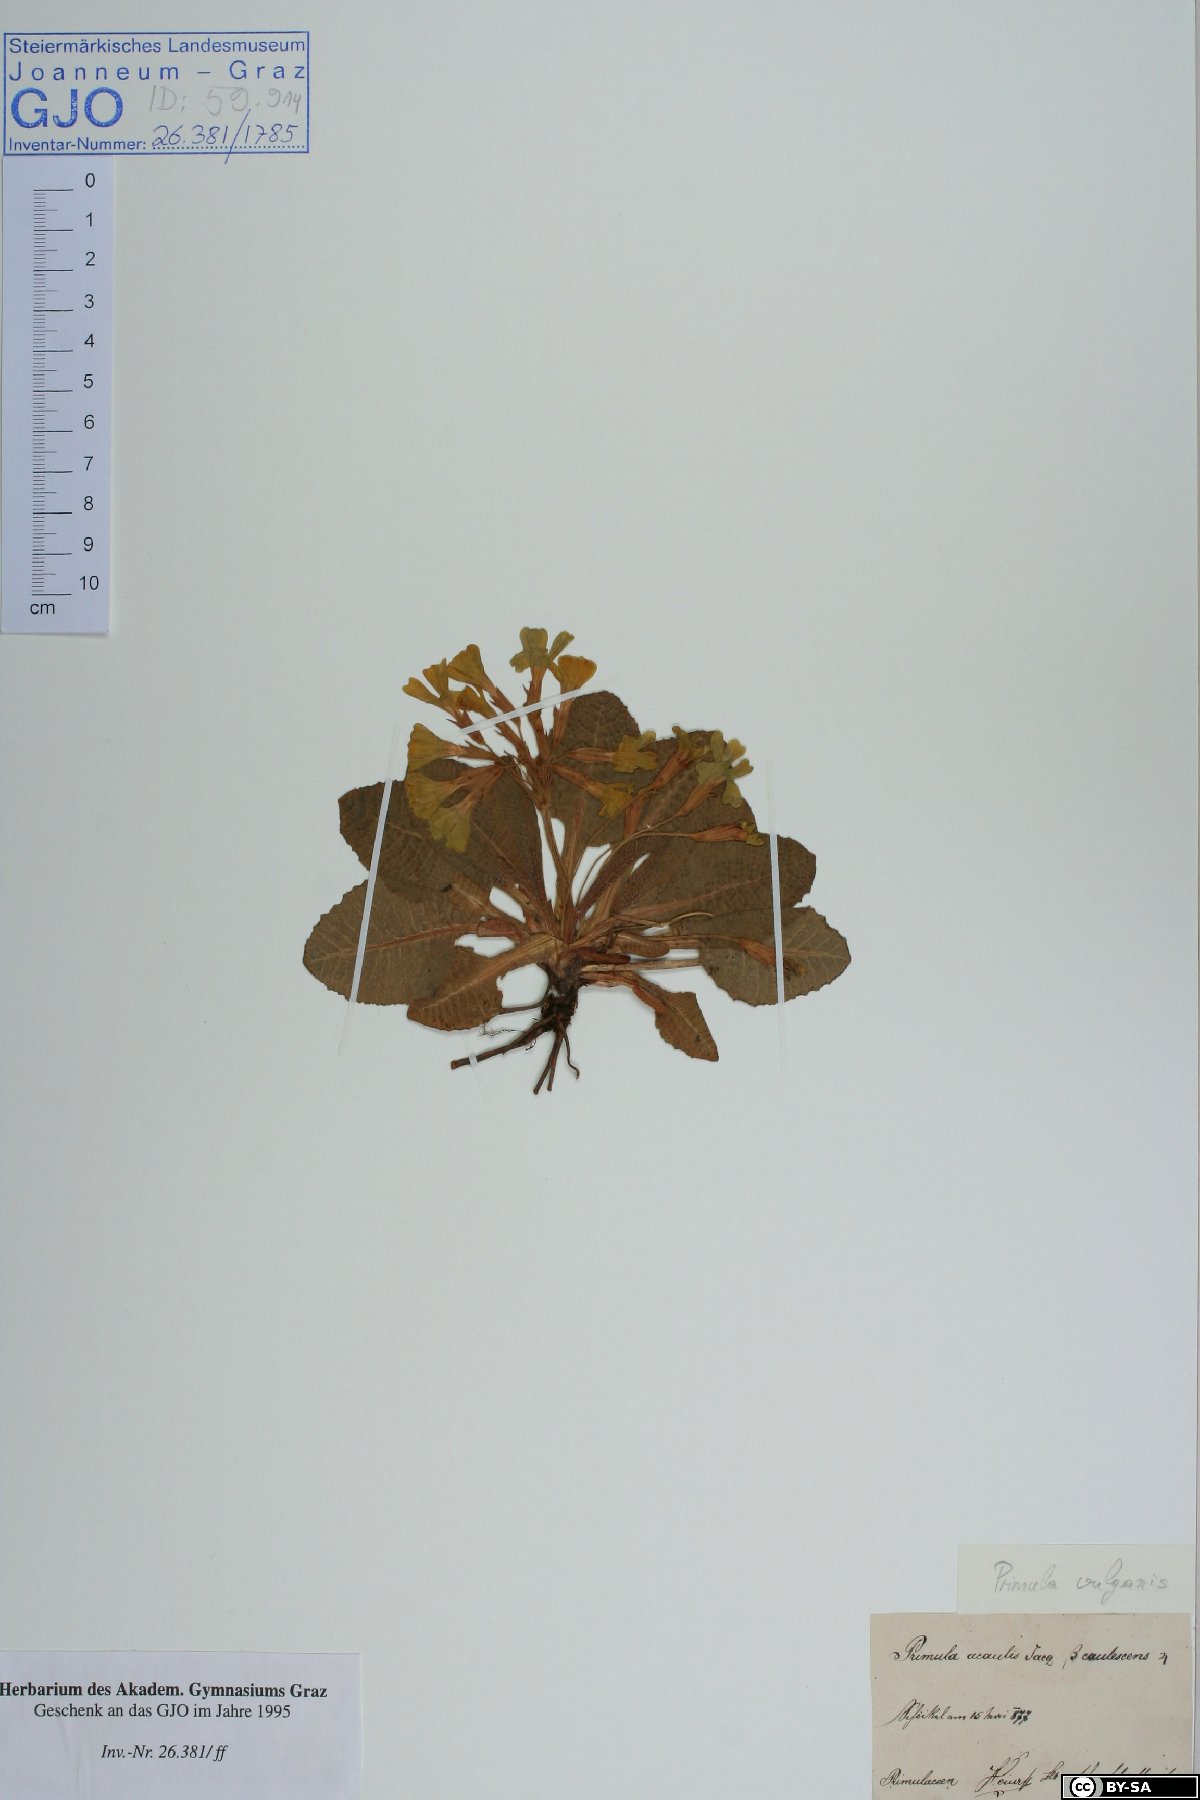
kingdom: Plantae
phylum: Tracheophyta
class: Magnoliopsida
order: Ericales
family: Primulaceae
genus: Primula
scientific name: Primula vulgaris
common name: Primrose
